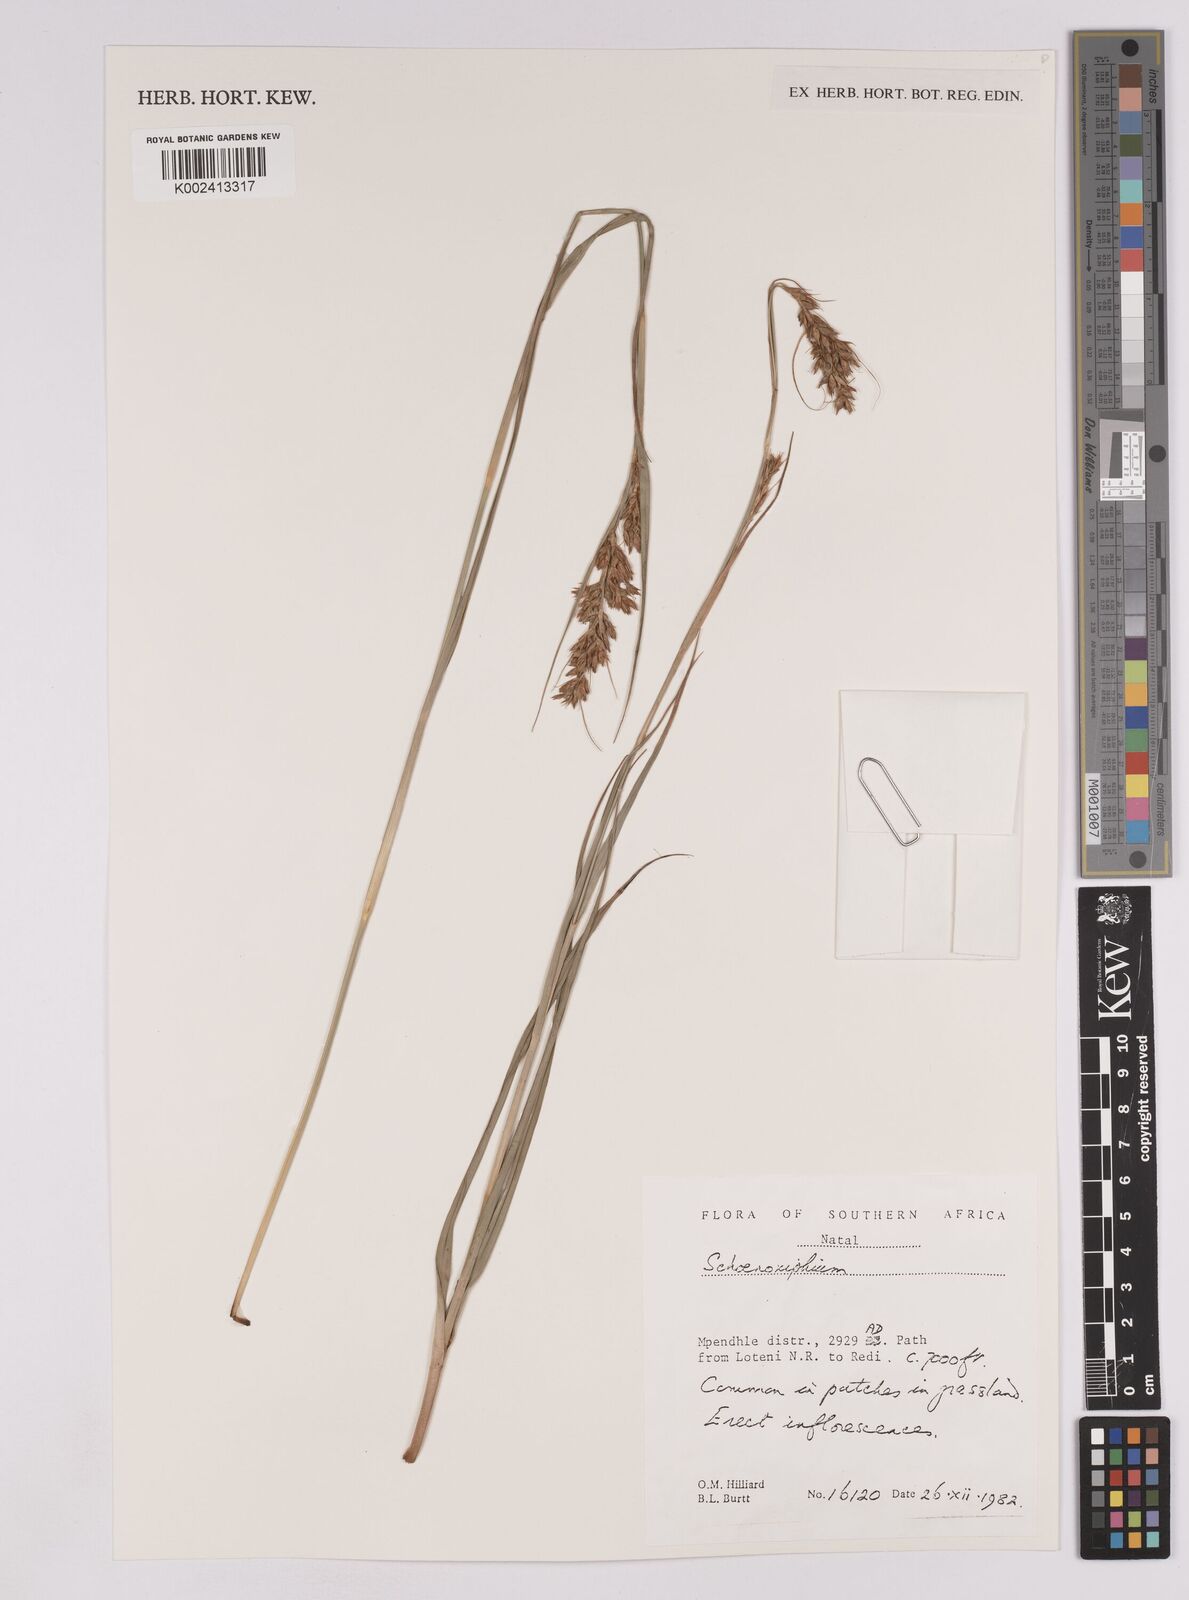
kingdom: Plantae
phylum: Tracheophyta
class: Liliopsida
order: Poales
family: Cyperaceae
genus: Carex
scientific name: Carex
